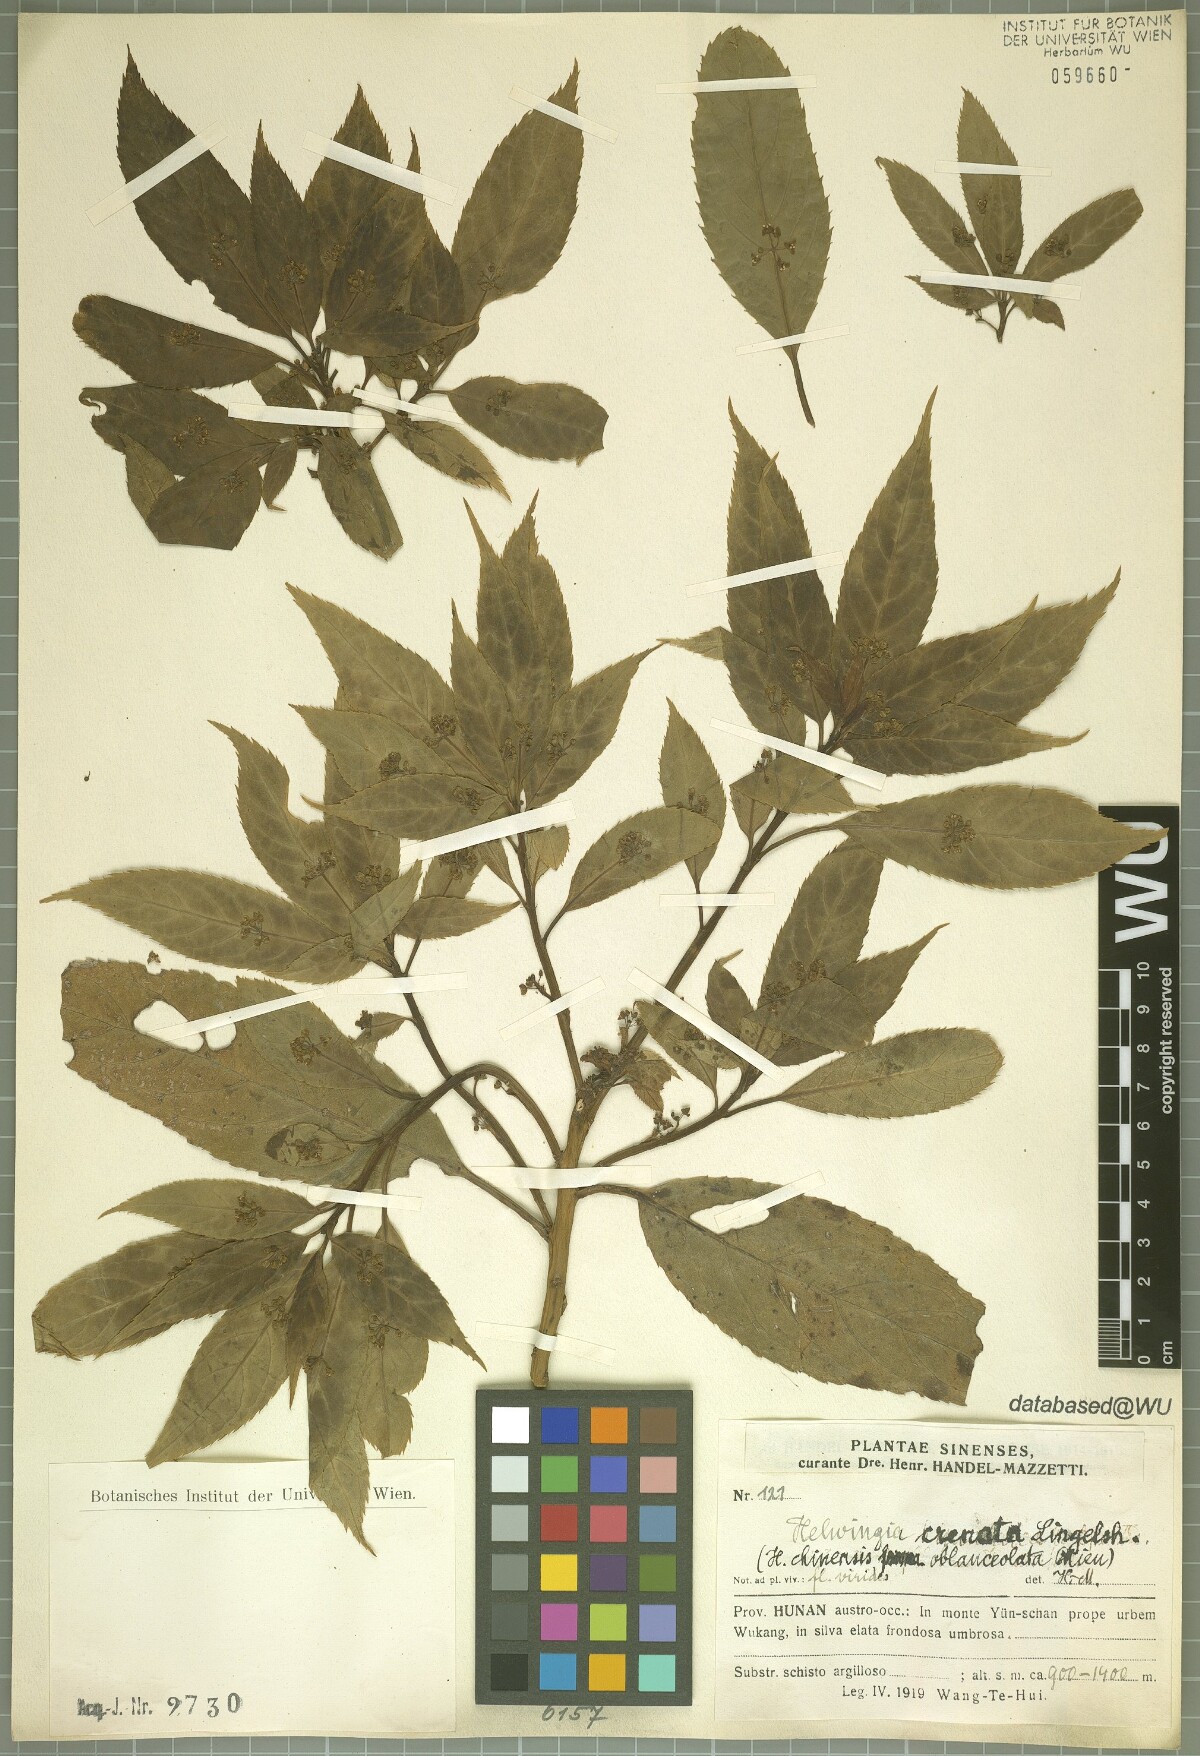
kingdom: Plantae
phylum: Tracheophyta
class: Magnoliopsida
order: Aquifoliales
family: Helwingiaceae
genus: Helwingia
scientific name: Helwingia crenata
